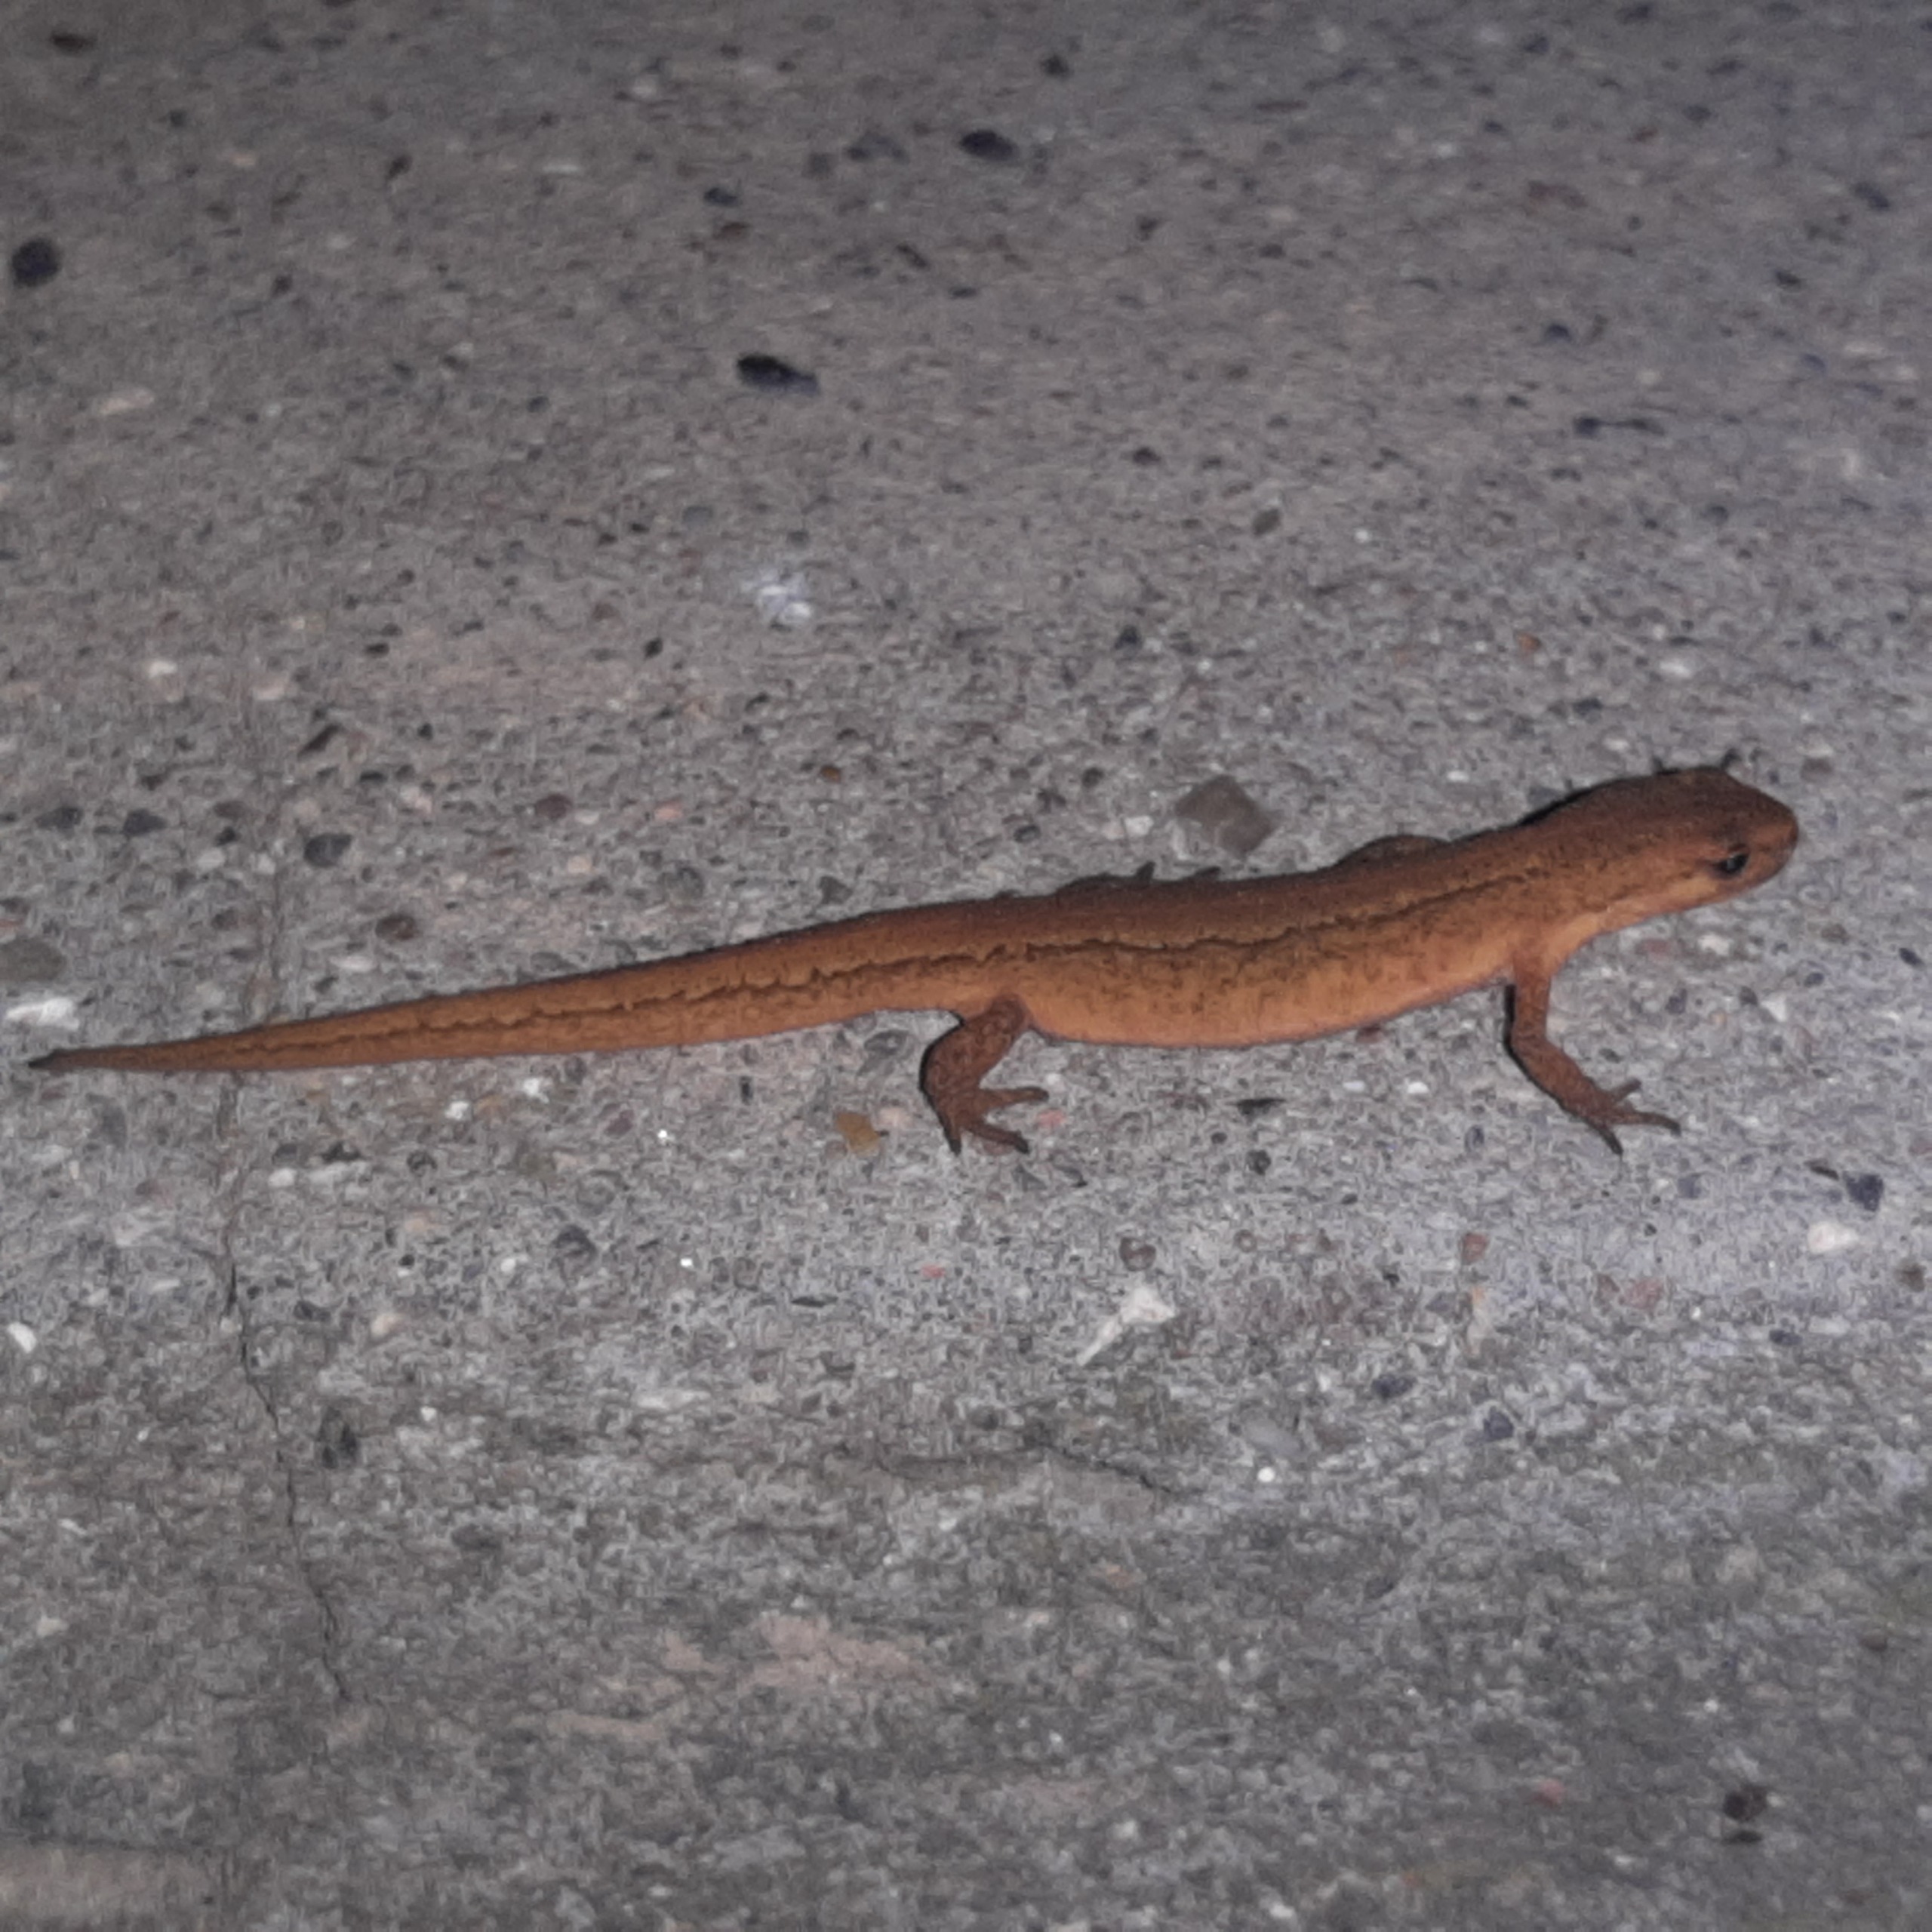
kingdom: Animalia
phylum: Chordata
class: Amphibia
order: Caudata
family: Salamandridae
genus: Lissotriton
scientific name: Lissotriton vulgaris
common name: Lille vandsalamander
